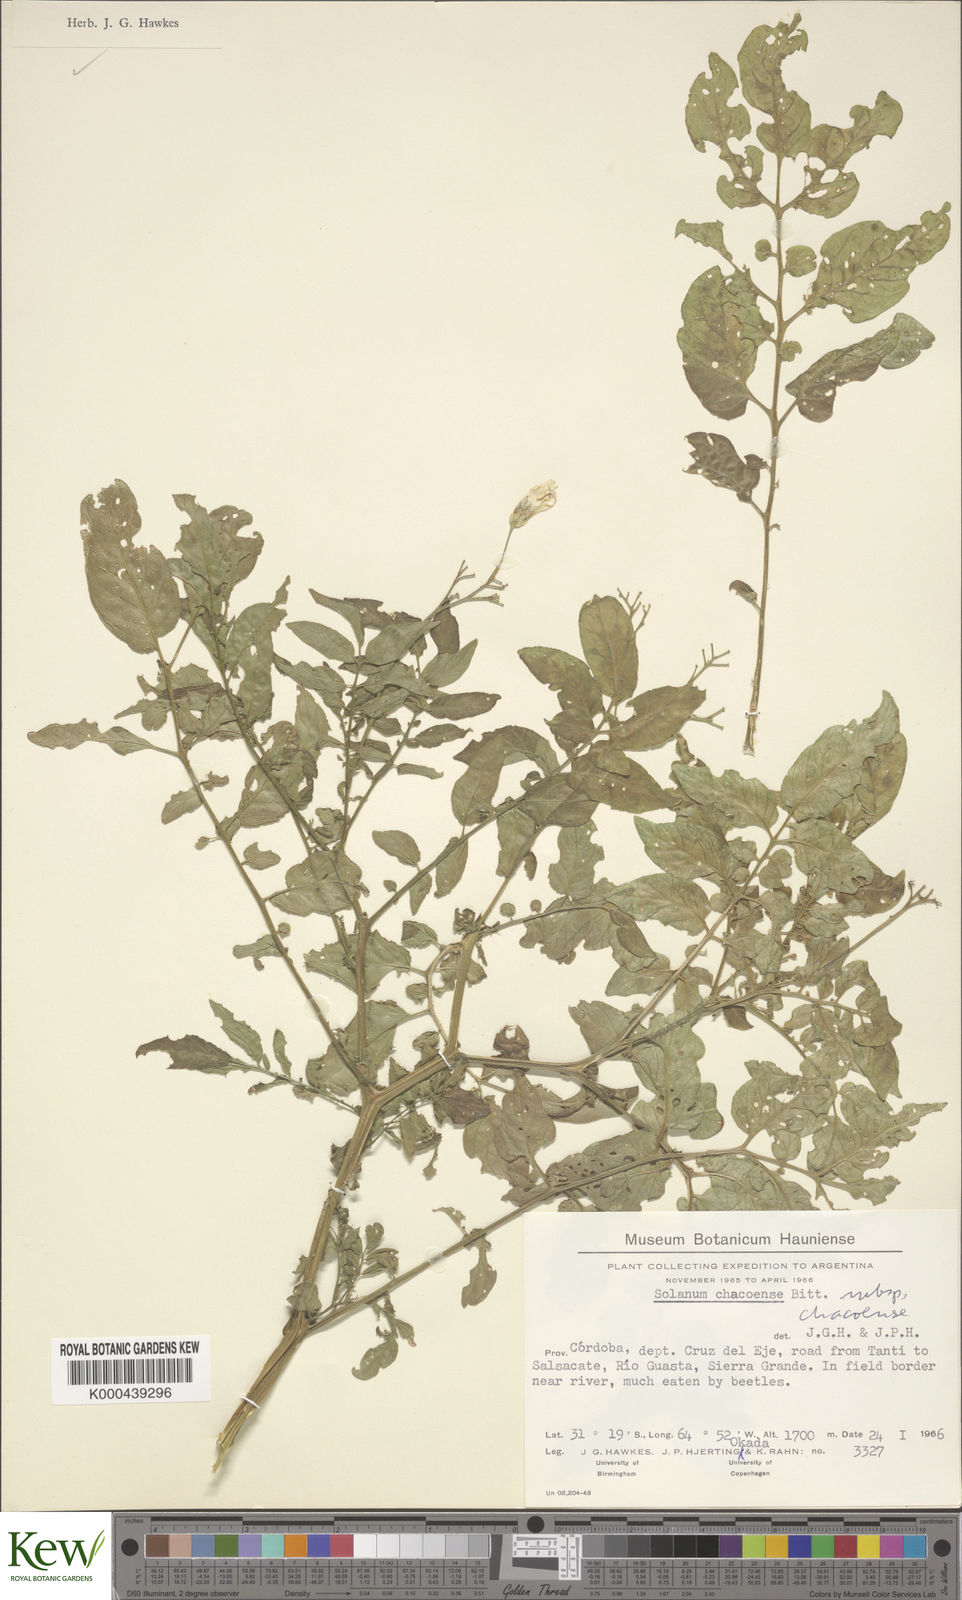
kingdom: Plantae
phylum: Tracheophyta
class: Magnoliopsida
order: Solanales
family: Solanaceae
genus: Solanum
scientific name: Solanum chacoense
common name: Chaco potato
